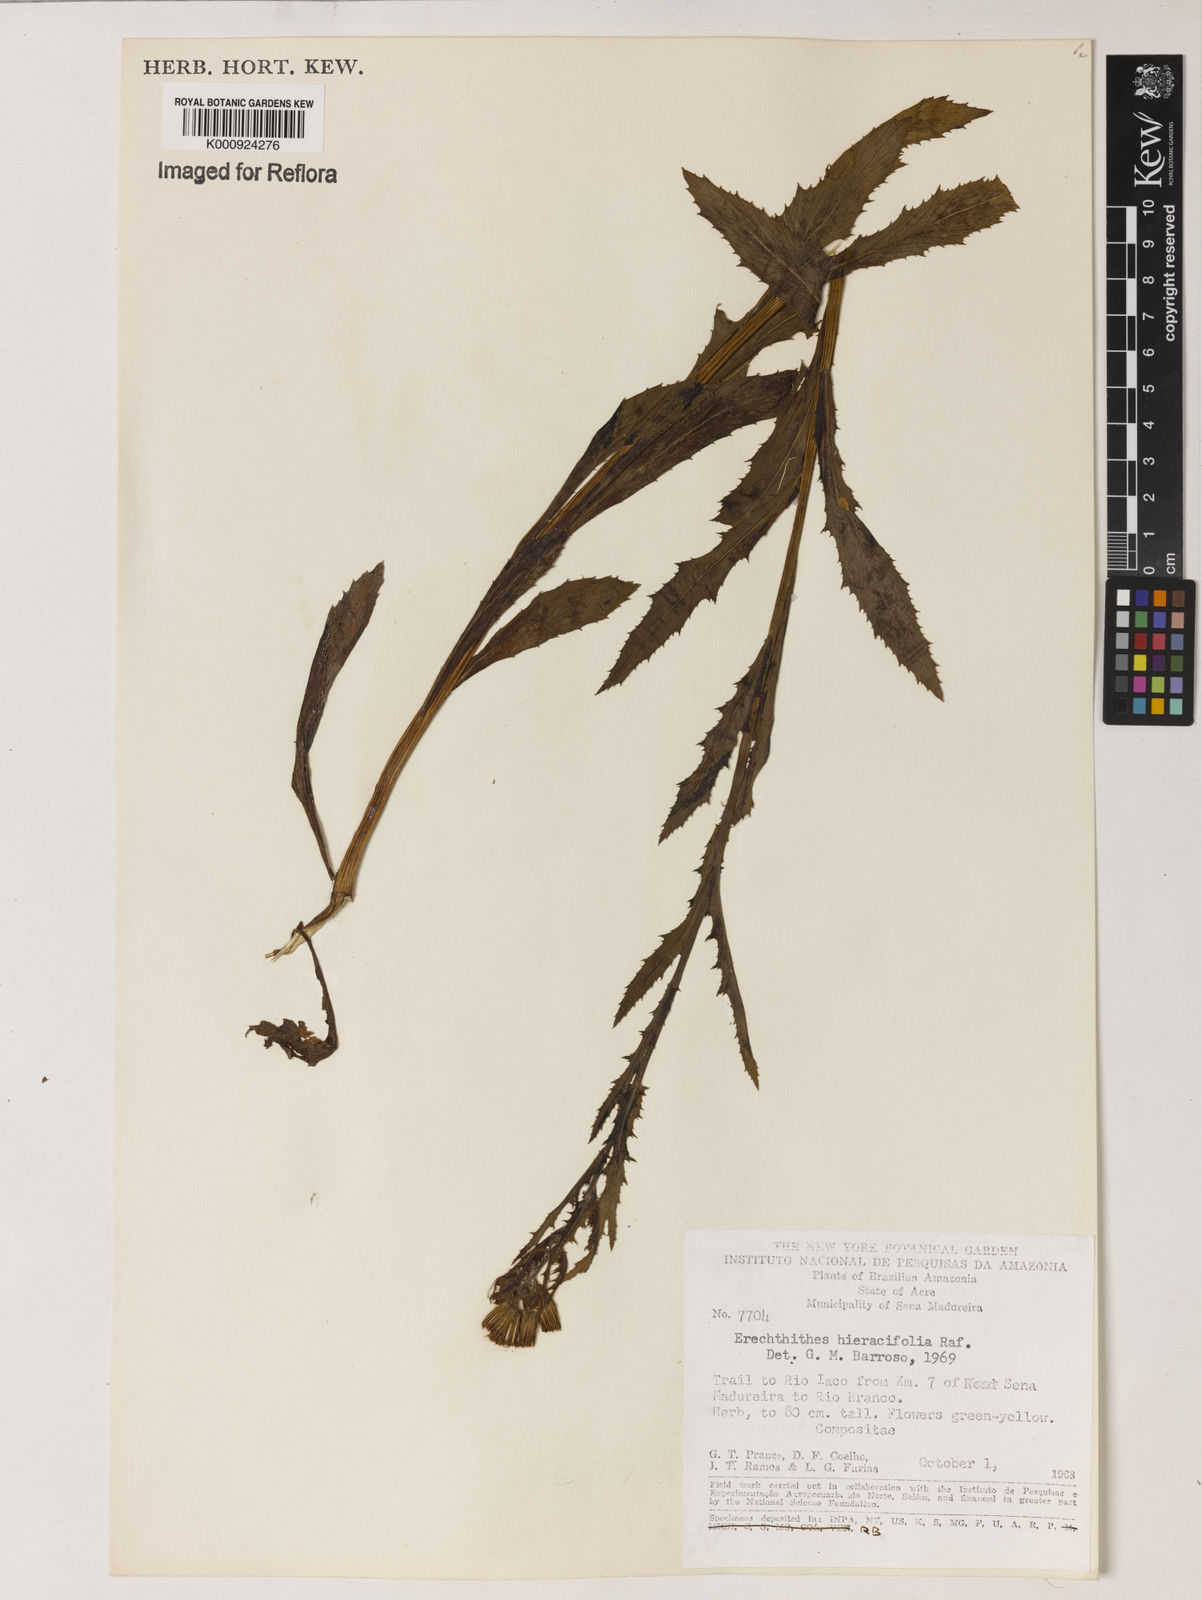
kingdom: Plantae
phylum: Tracheophyta
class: Magnoliopsida
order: Asterales
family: Asteraceae
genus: Erechtites
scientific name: Erechtites hieraciifolius
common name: American burnweed
